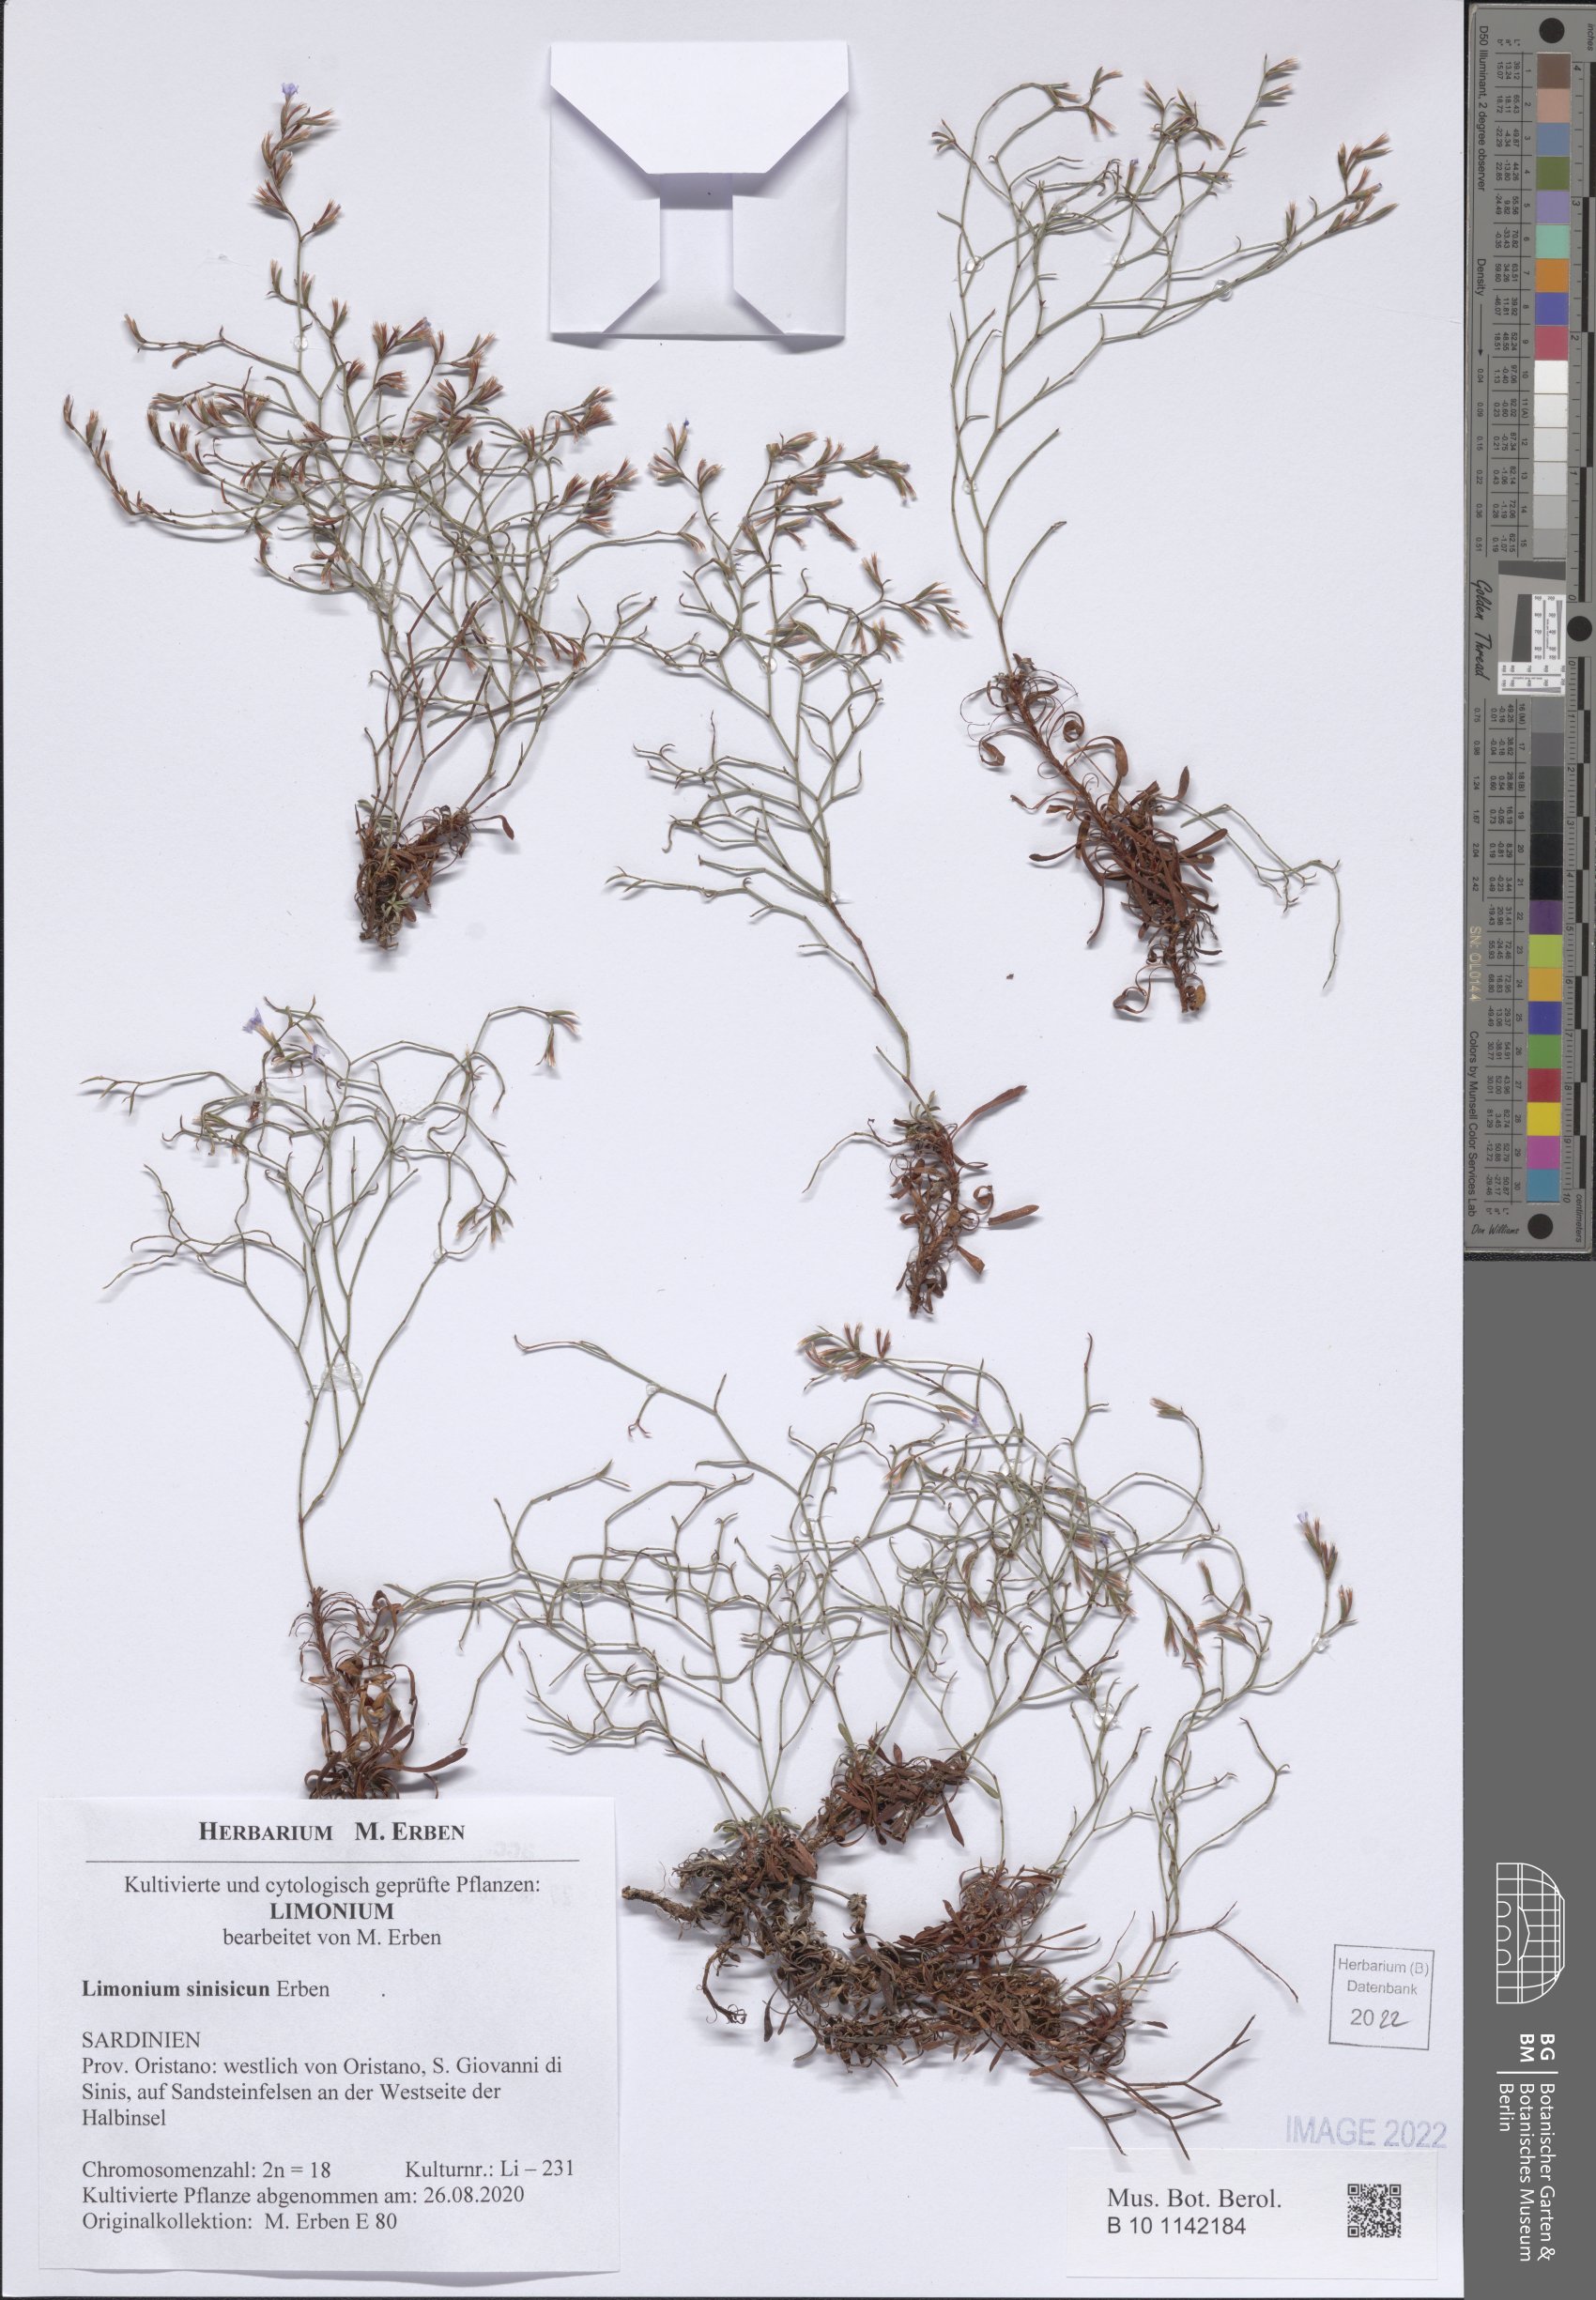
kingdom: Plantae
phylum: Tracheophyta
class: Magnoliopsida
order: Caryophyllales
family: Plumbaginaceae
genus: Limonium
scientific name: Limonium acutifolium
